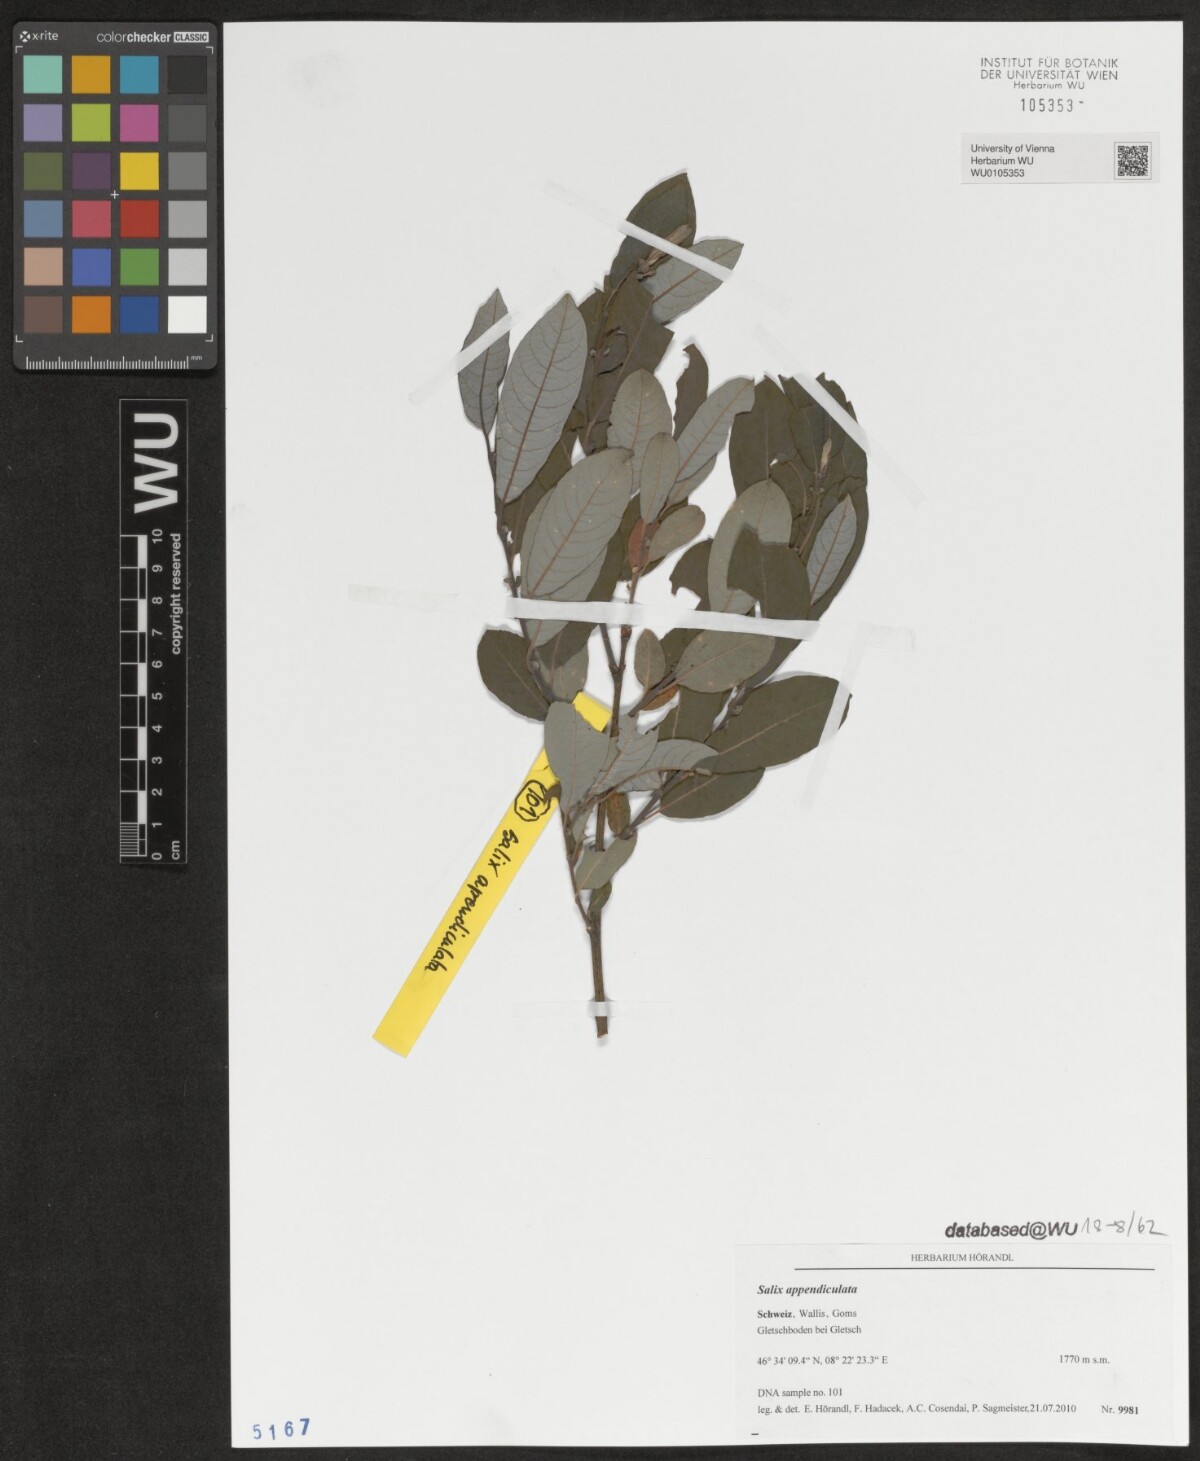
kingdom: Plantae
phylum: Tracheophyta
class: Magnoliopsida
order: Malpighiales
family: Salicaceae
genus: Salix
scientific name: Salix appendiculata
